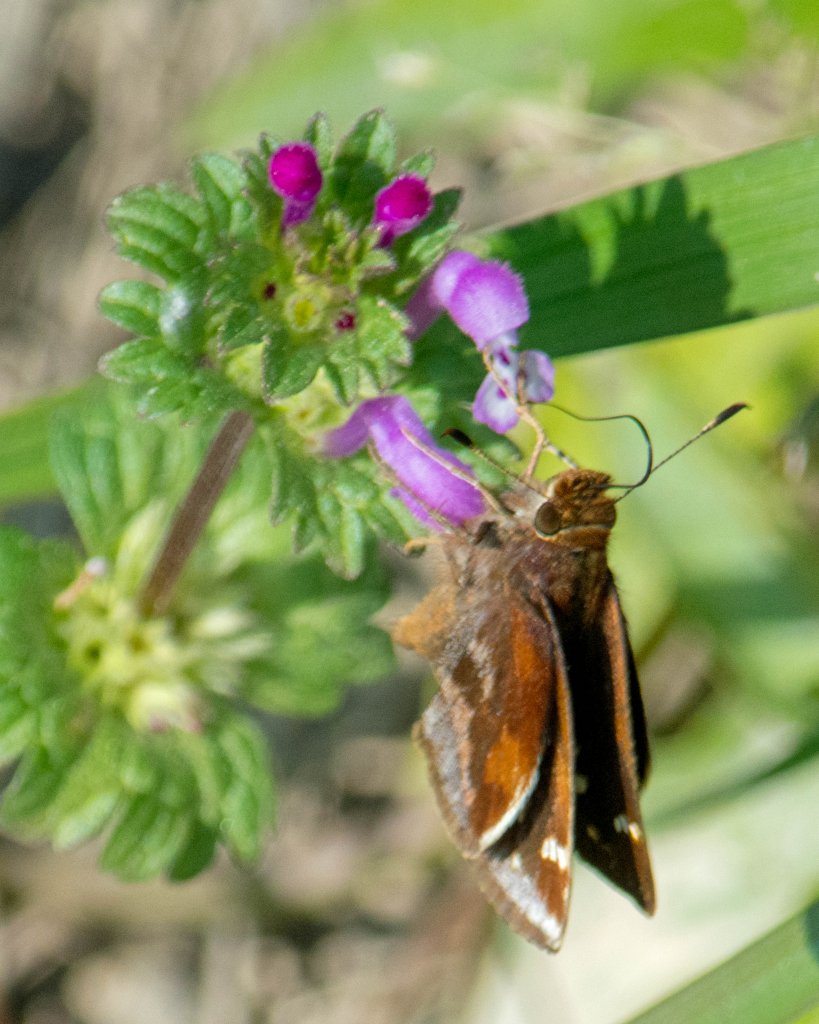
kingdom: Animalia
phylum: Arthropoda
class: Insecta
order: Lepidoptera
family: Hesperiidae
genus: Lon
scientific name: Lon zabulon
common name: Zabulon Skipper
